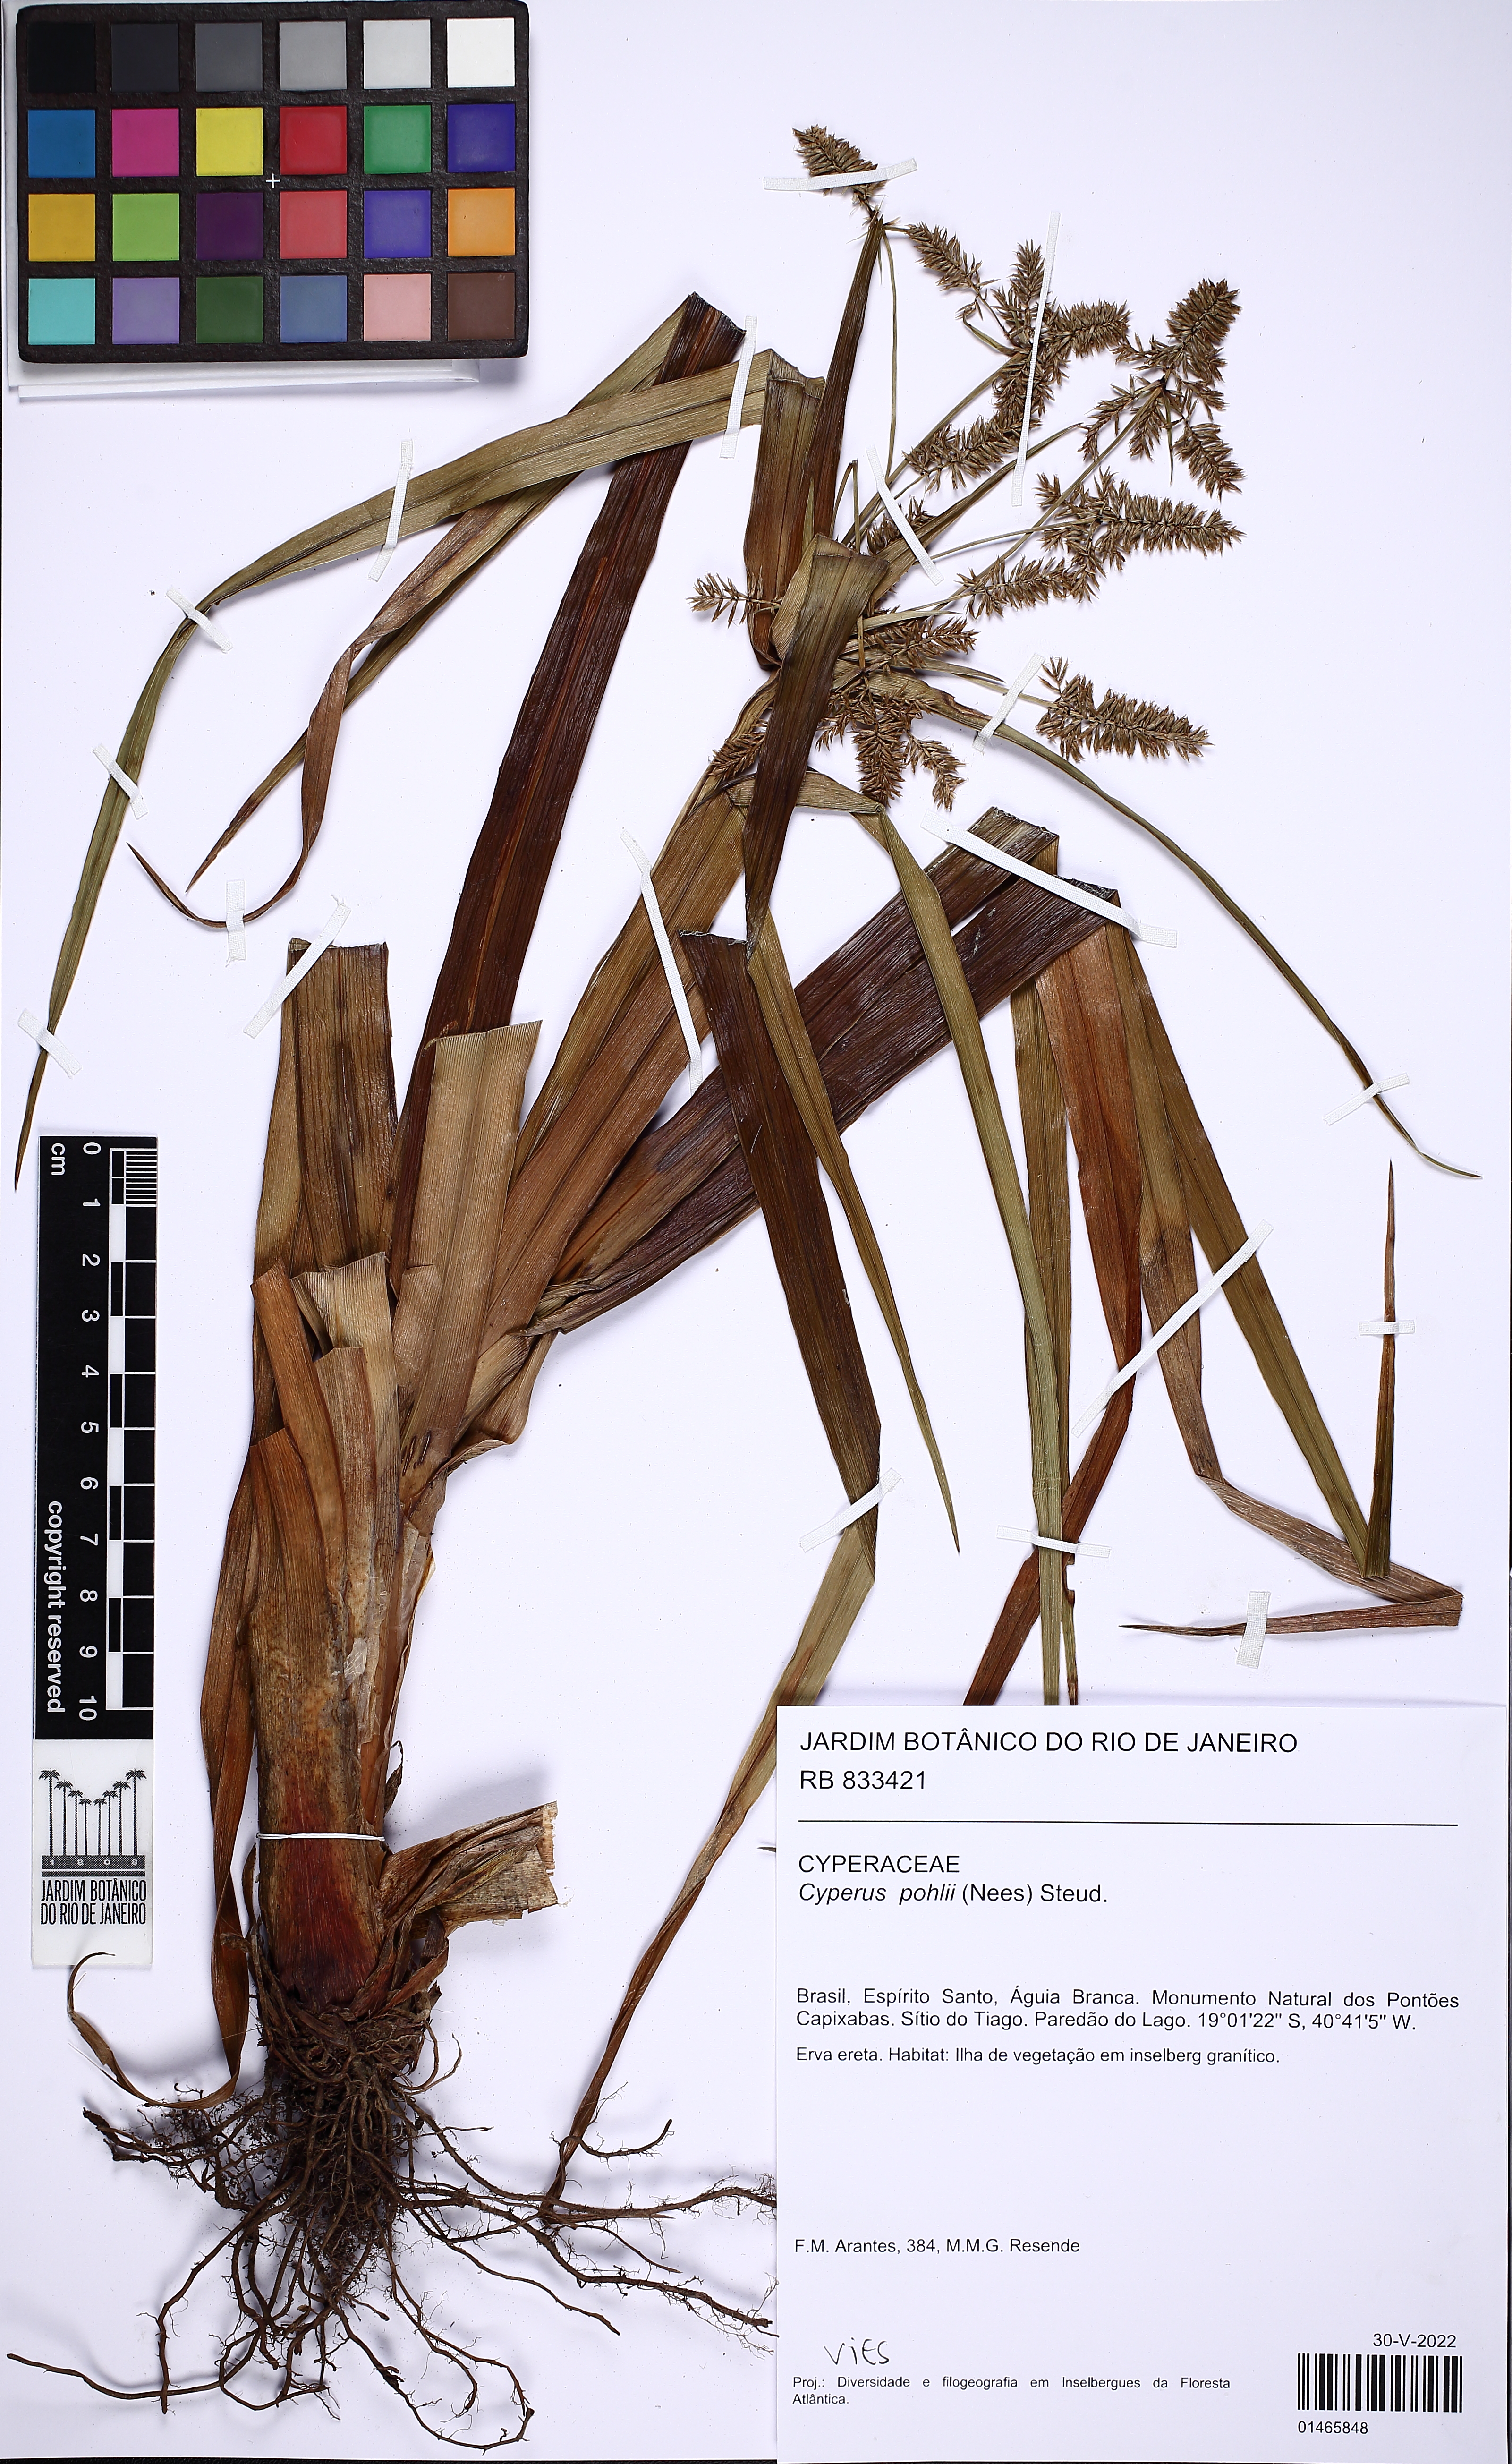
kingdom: Plantae
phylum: Tracheophyta
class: Liliopsida
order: Poales
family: Cyperaceae
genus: Cyperus
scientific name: Cyperus pohlii
